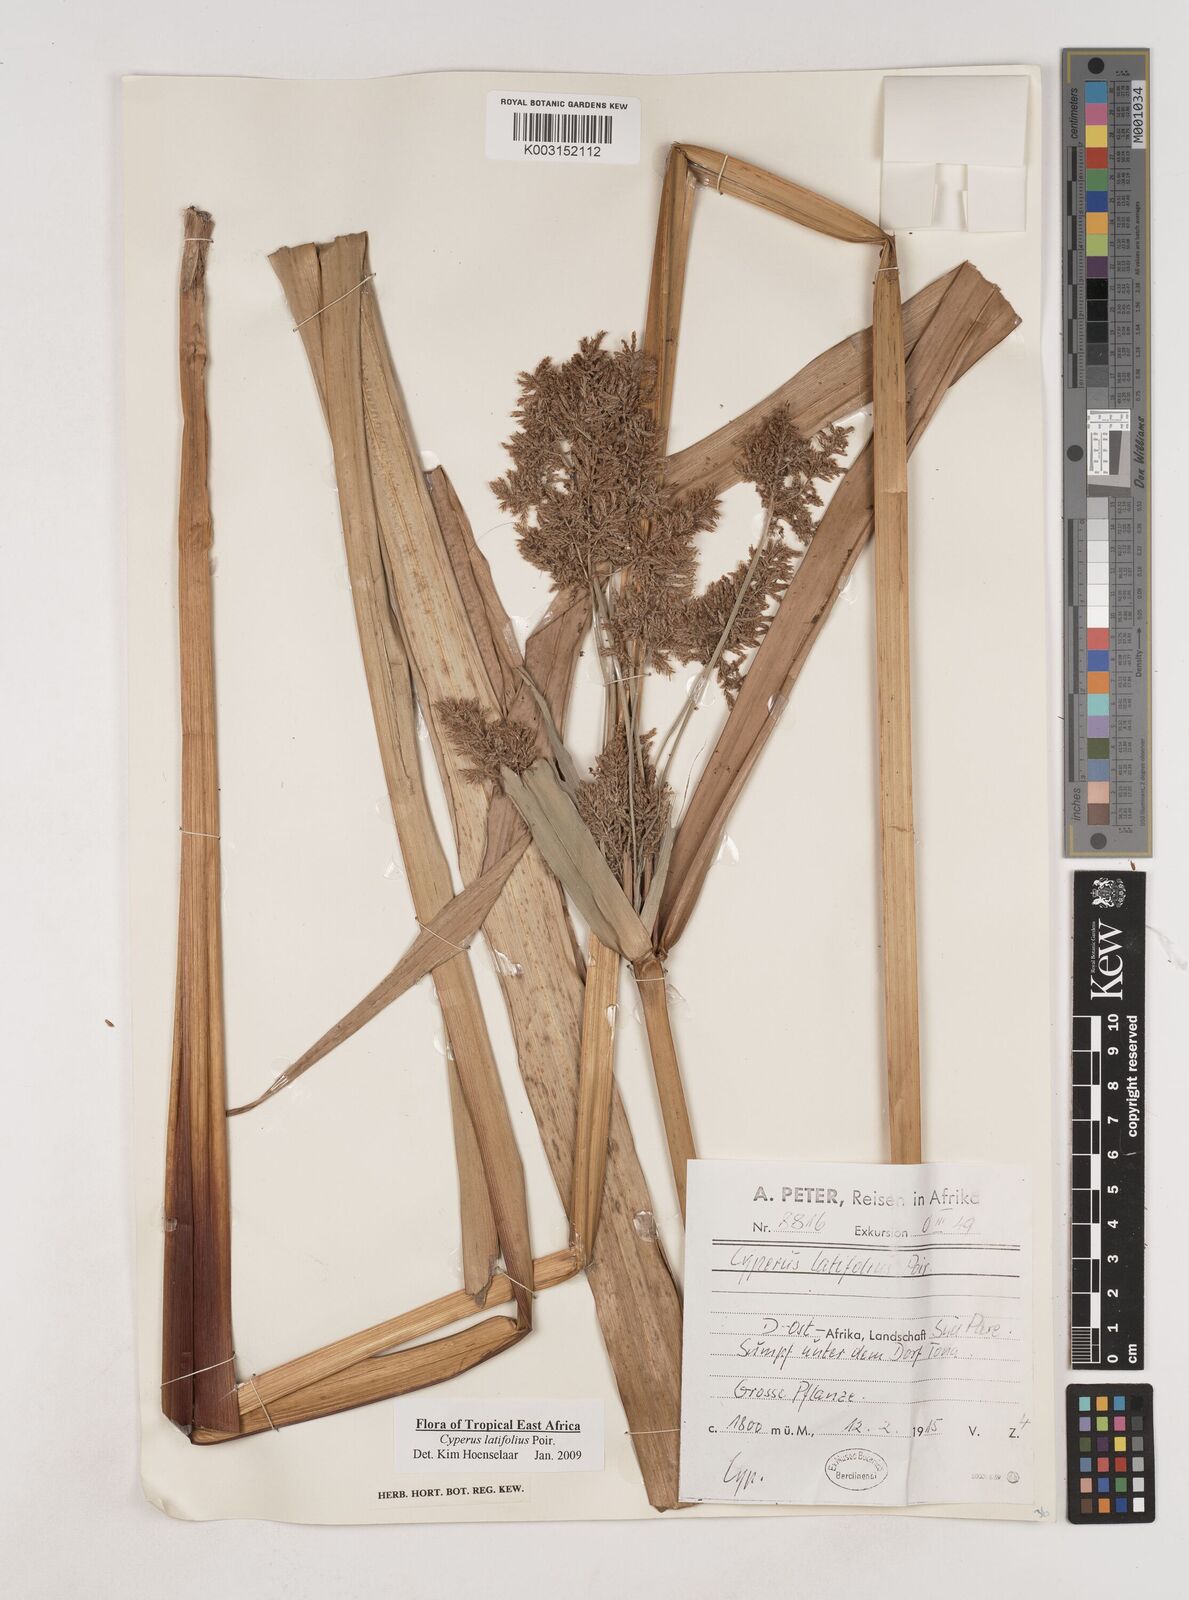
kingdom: Plantae
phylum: Tracheophyta
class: Liliopsida
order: Poales
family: Cyperaceae
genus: Cyperus
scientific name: Cyperus latifolius
